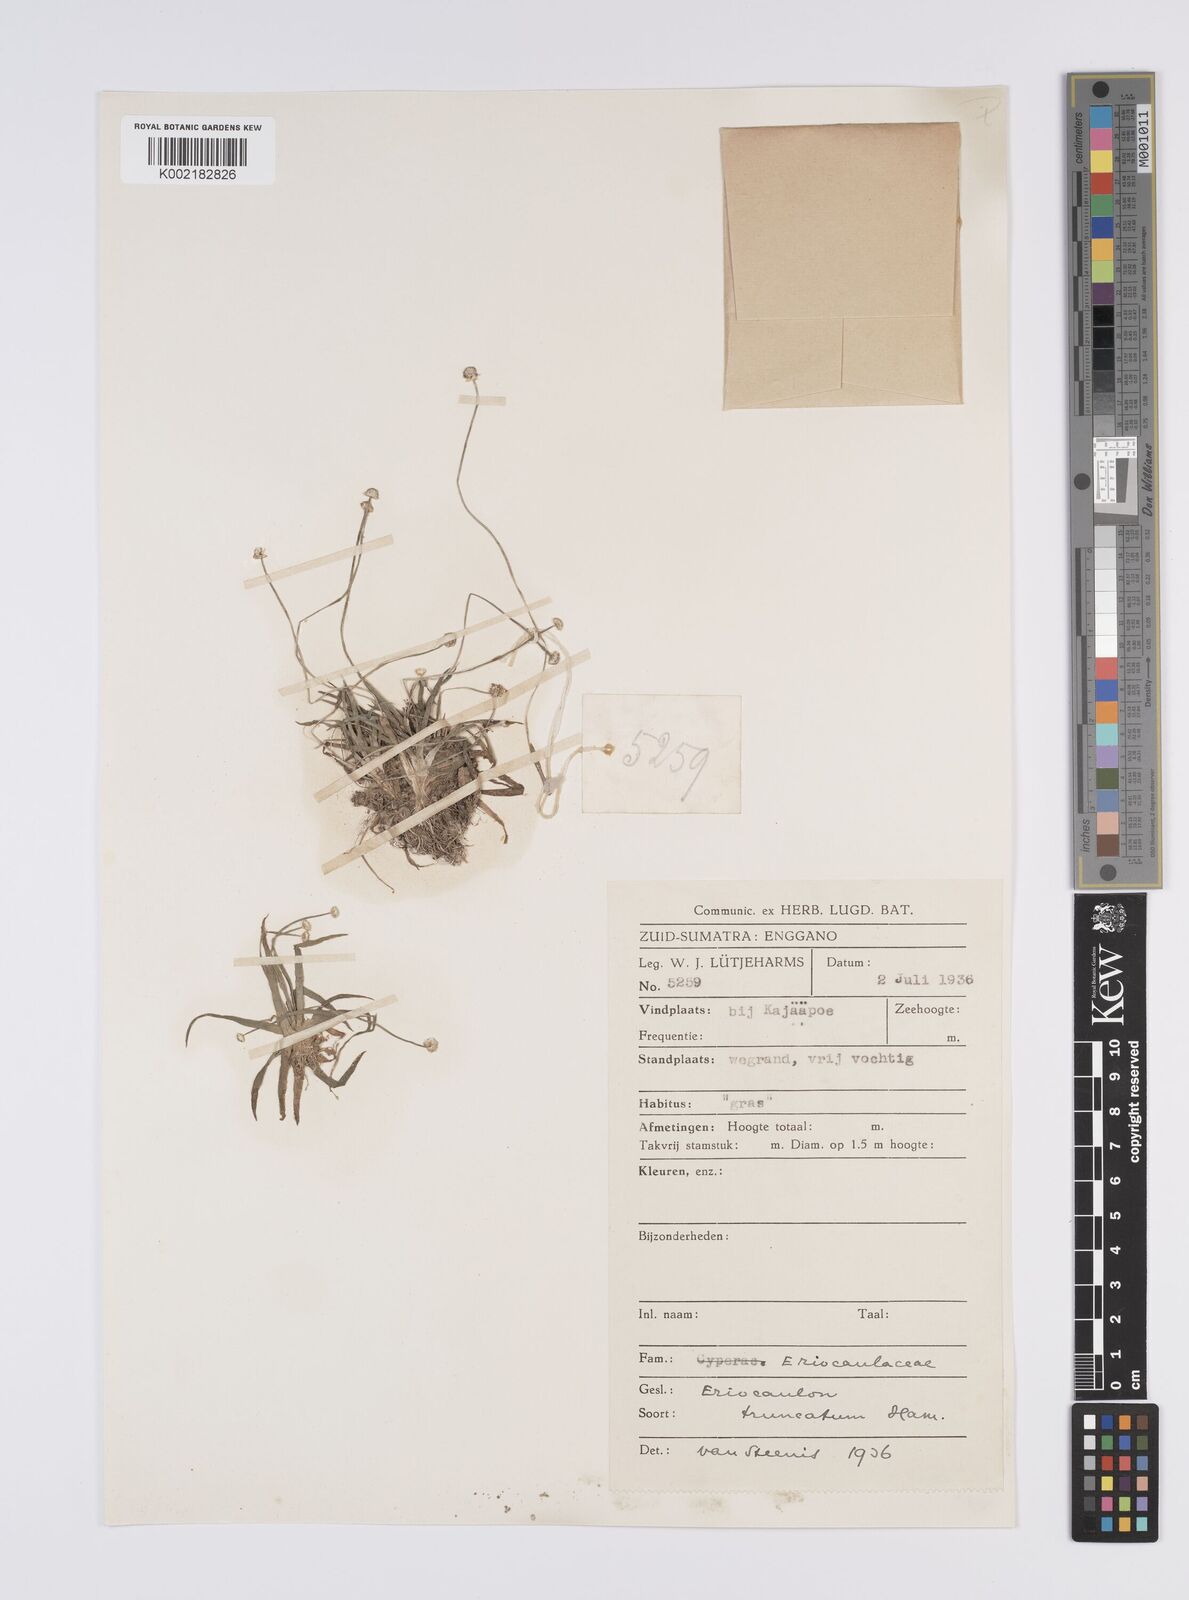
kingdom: Plantae
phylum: Tracheophyta
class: Liliopsida
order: Poales
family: Eriocaulaceae
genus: Eriocaulon
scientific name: Eriocaulon truncatum
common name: Short pipe-wort
